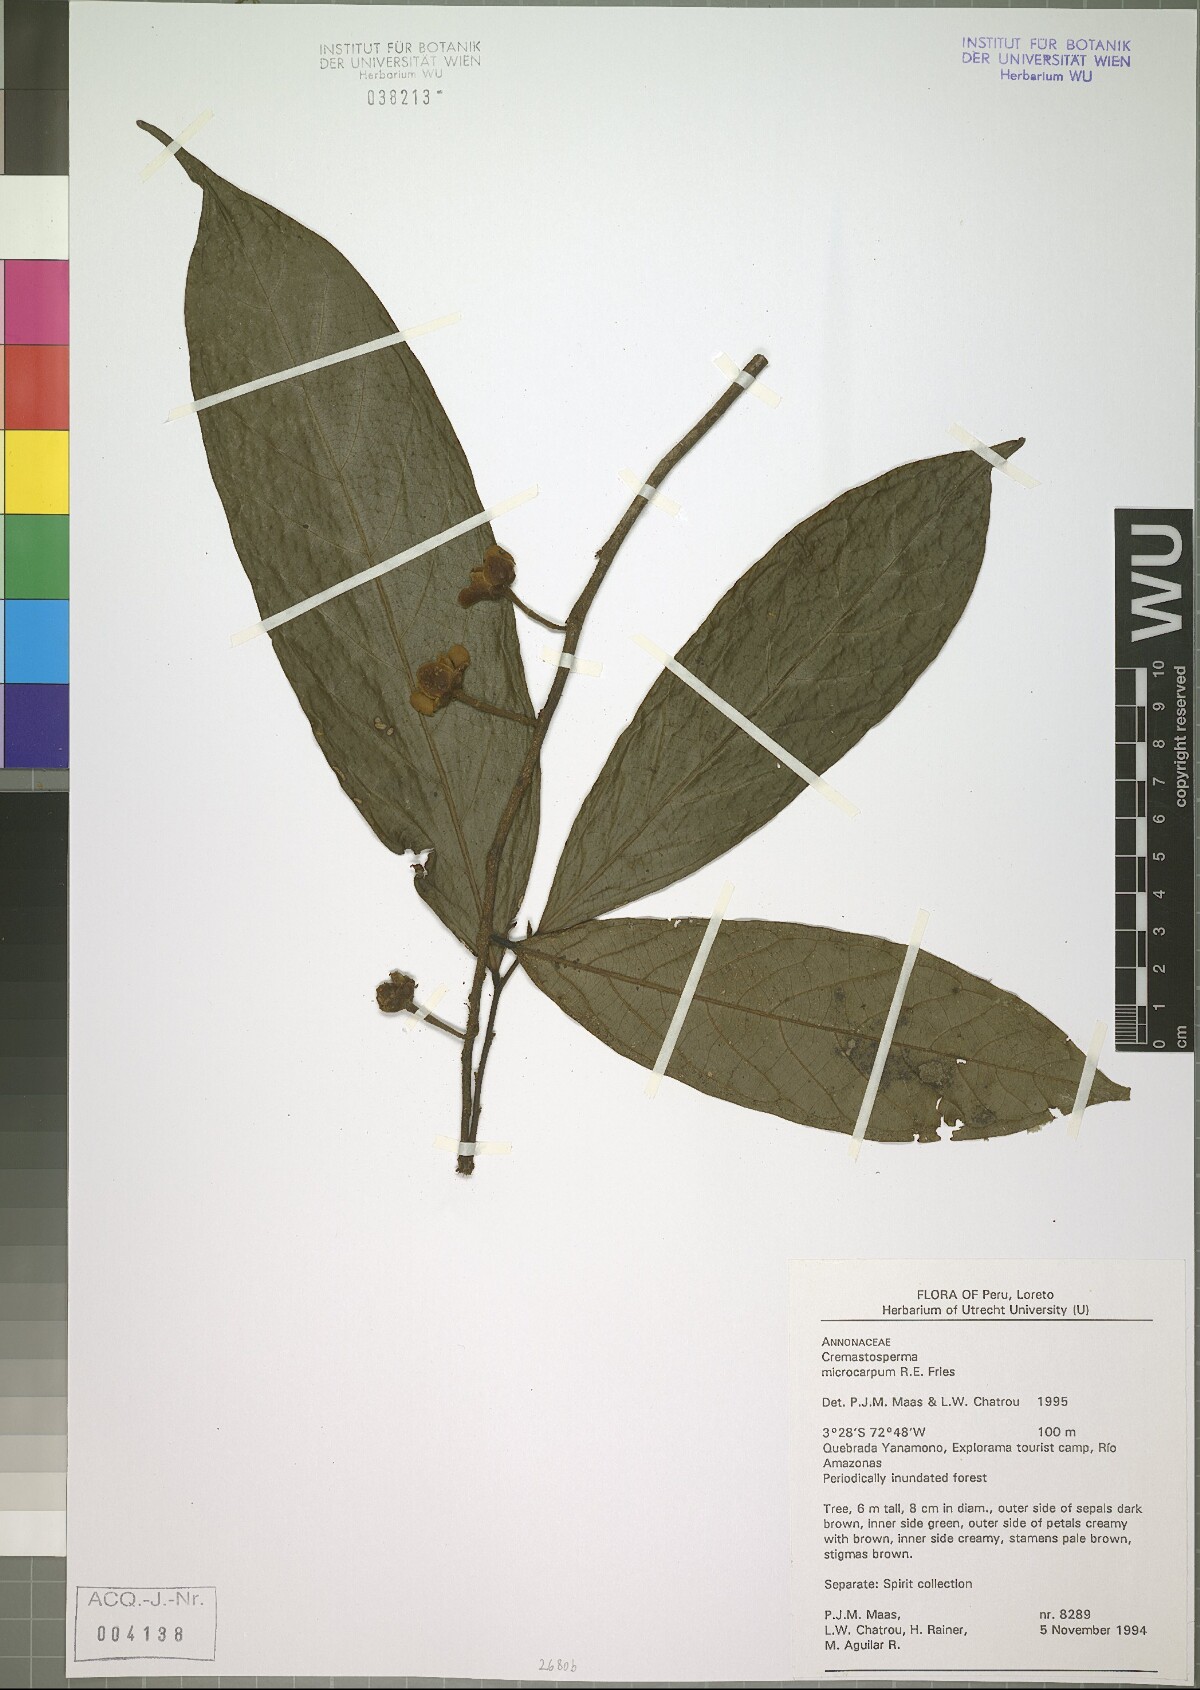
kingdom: Plantae
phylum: Tracheophyta
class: Magnoliopsida
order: Magnoliales
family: Annonaceae
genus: Cremastosperma
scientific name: Cremastosperma microcarpum
